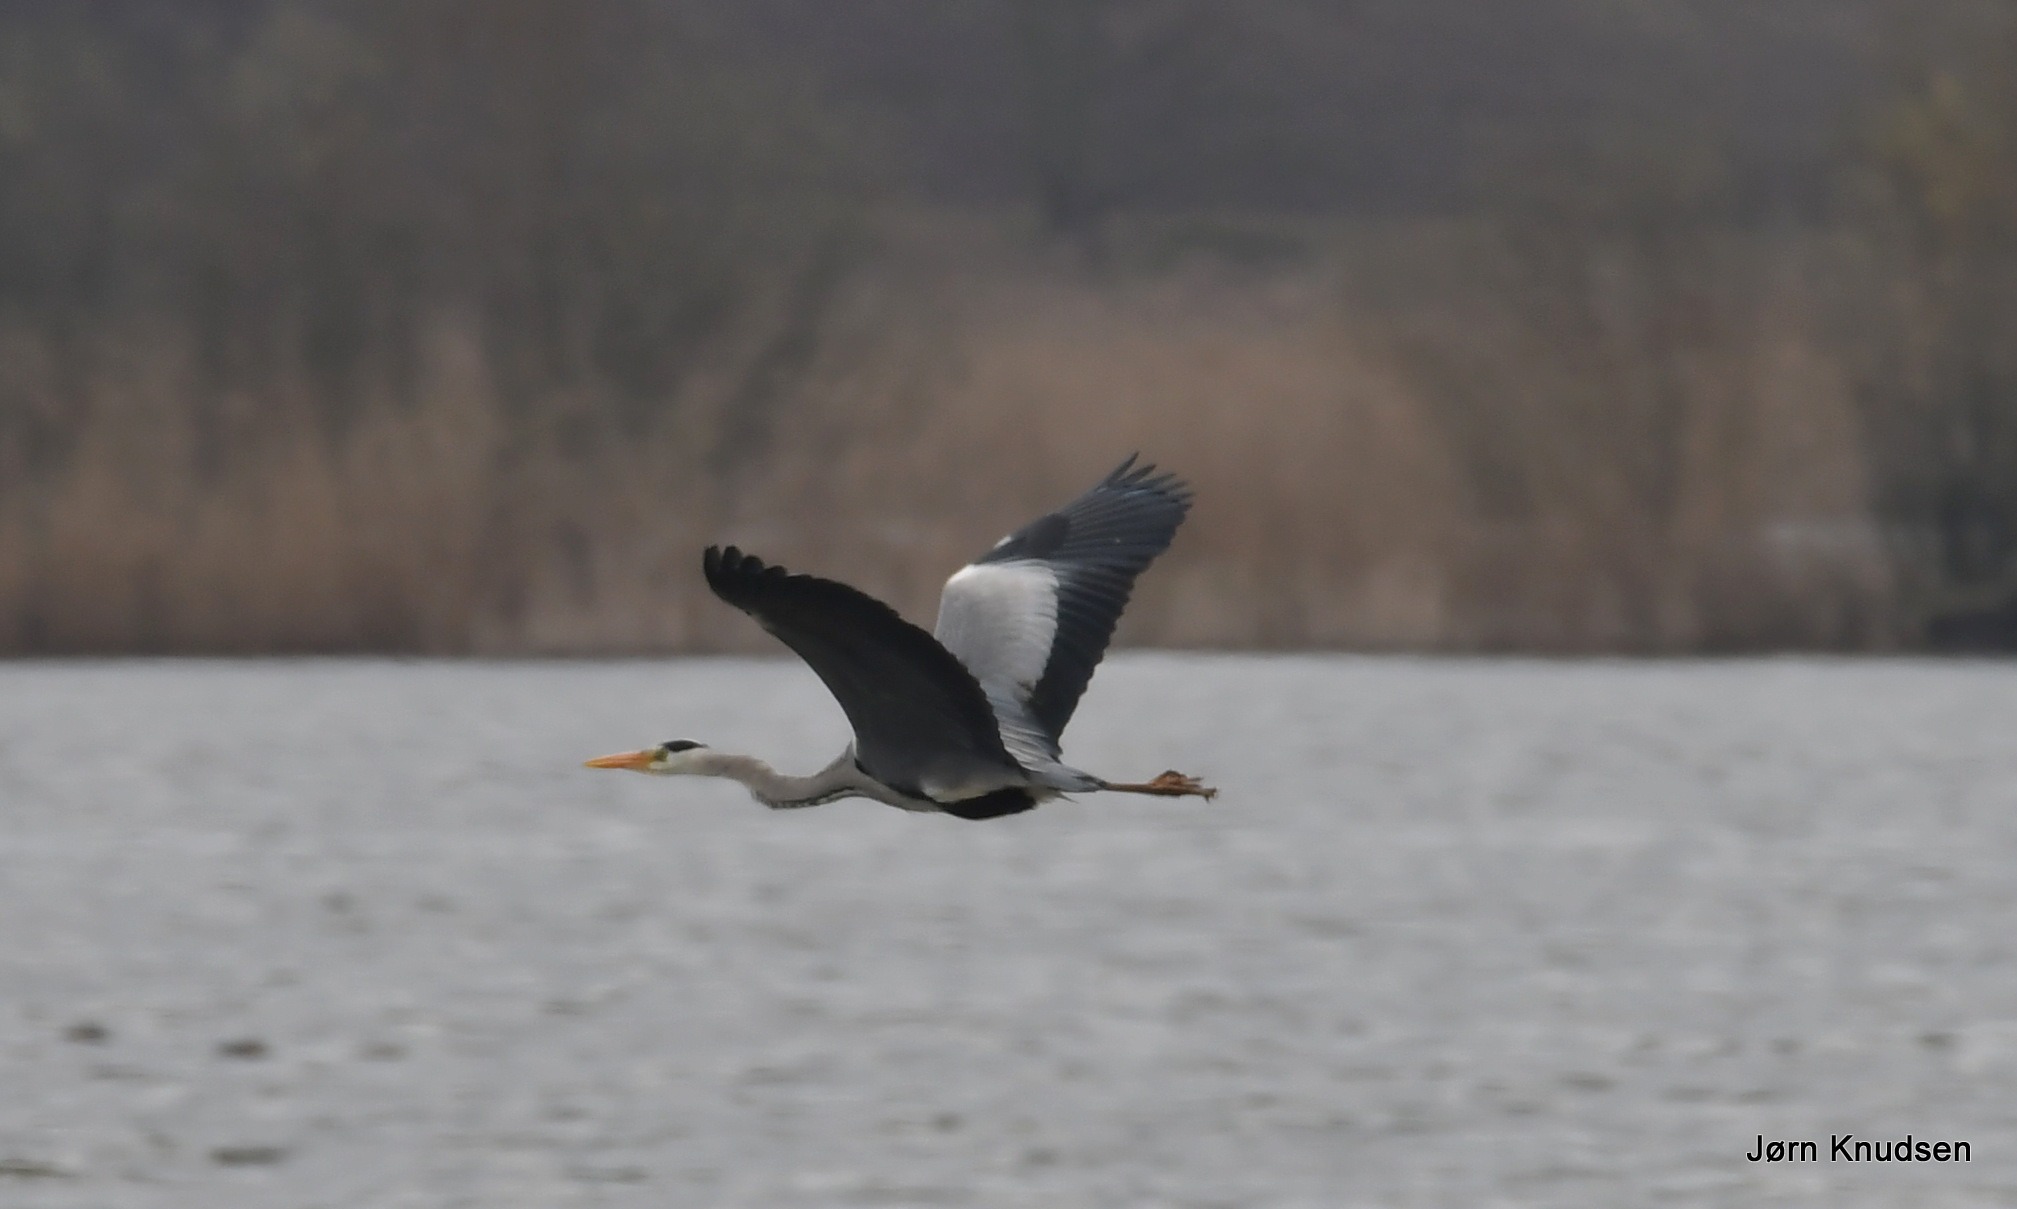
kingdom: Animalia
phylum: Chordata
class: Aves
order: Pelecaniformes
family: Ardeidae
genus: Ardea
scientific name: Ardea cinerea
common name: Fiskehejre
